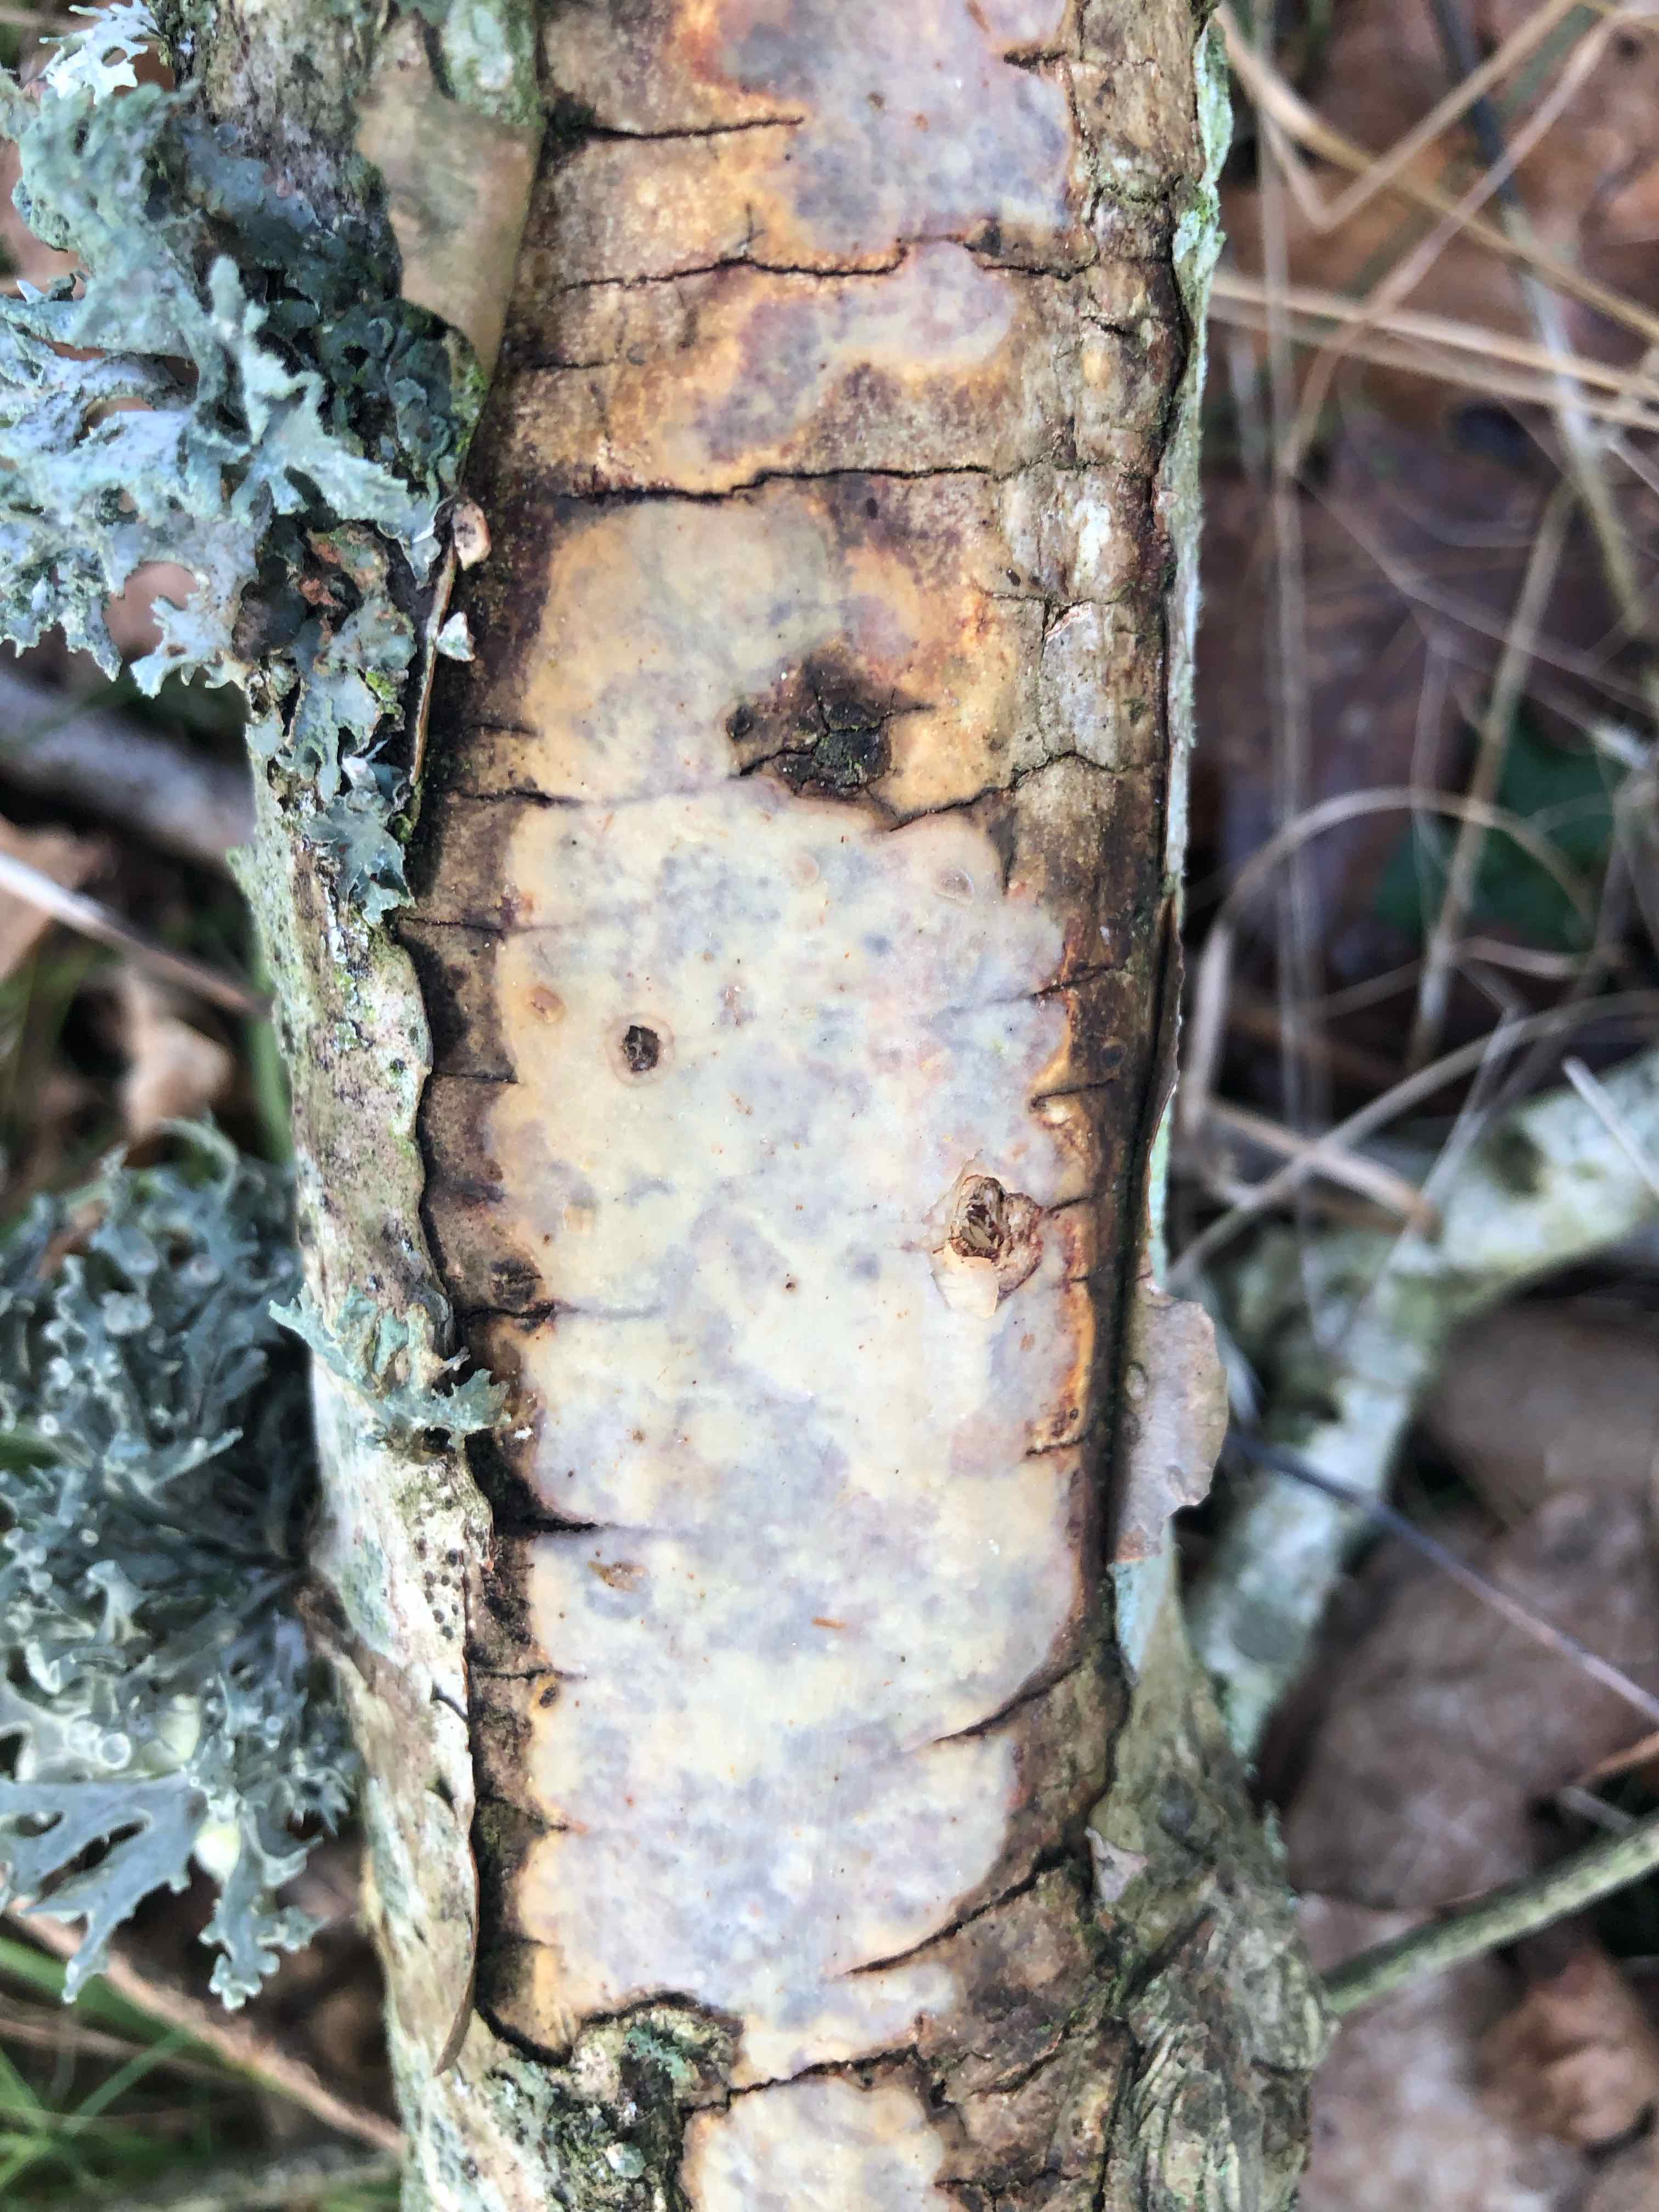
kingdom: Fungi
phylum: Basidiomycota
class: Agaricomycetes
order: Corticiales
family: Vuilleminiaceae
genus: Vuilleminia
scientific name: Vuilleminia comedens
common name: almindelig barksprænger
